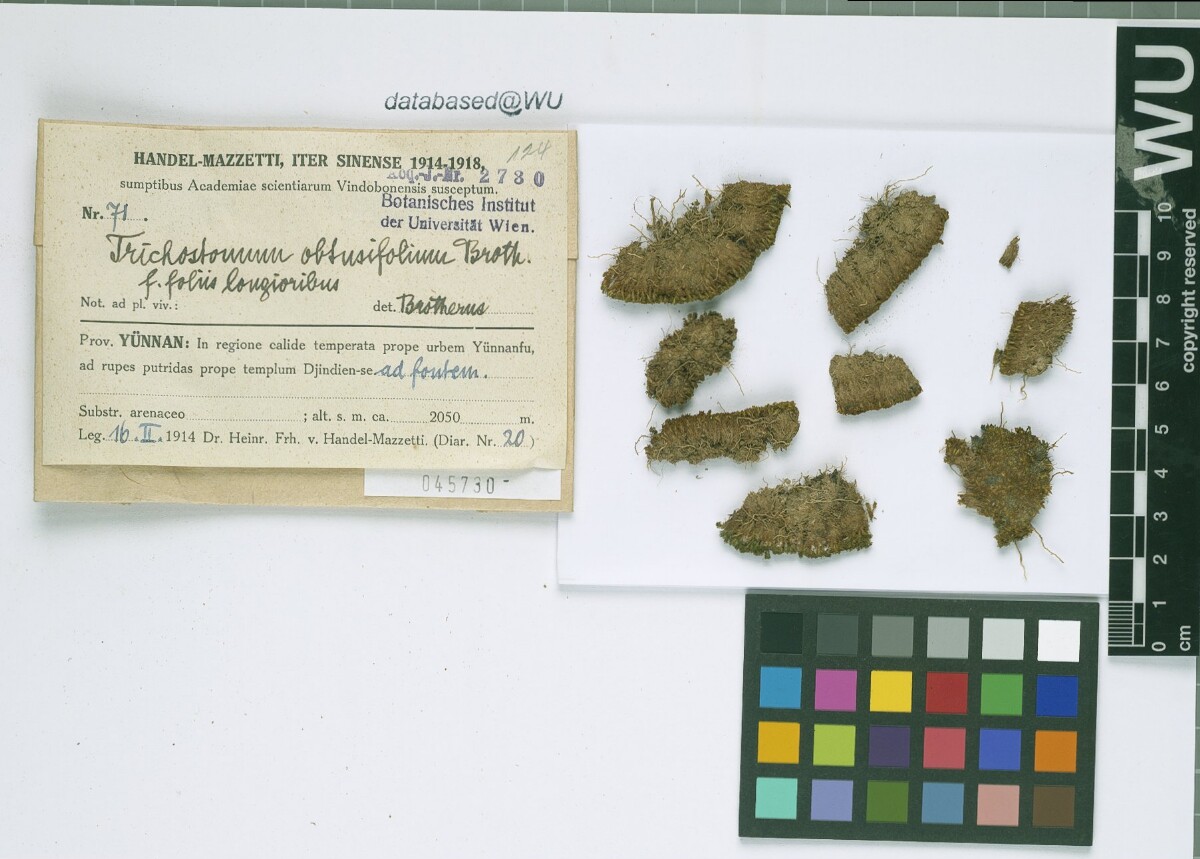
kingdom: Plantae
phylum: Bryophyta
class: Bryopsida
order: Pottiales
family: Pottiaceae
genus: Barbula
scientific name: Barbula chenia
